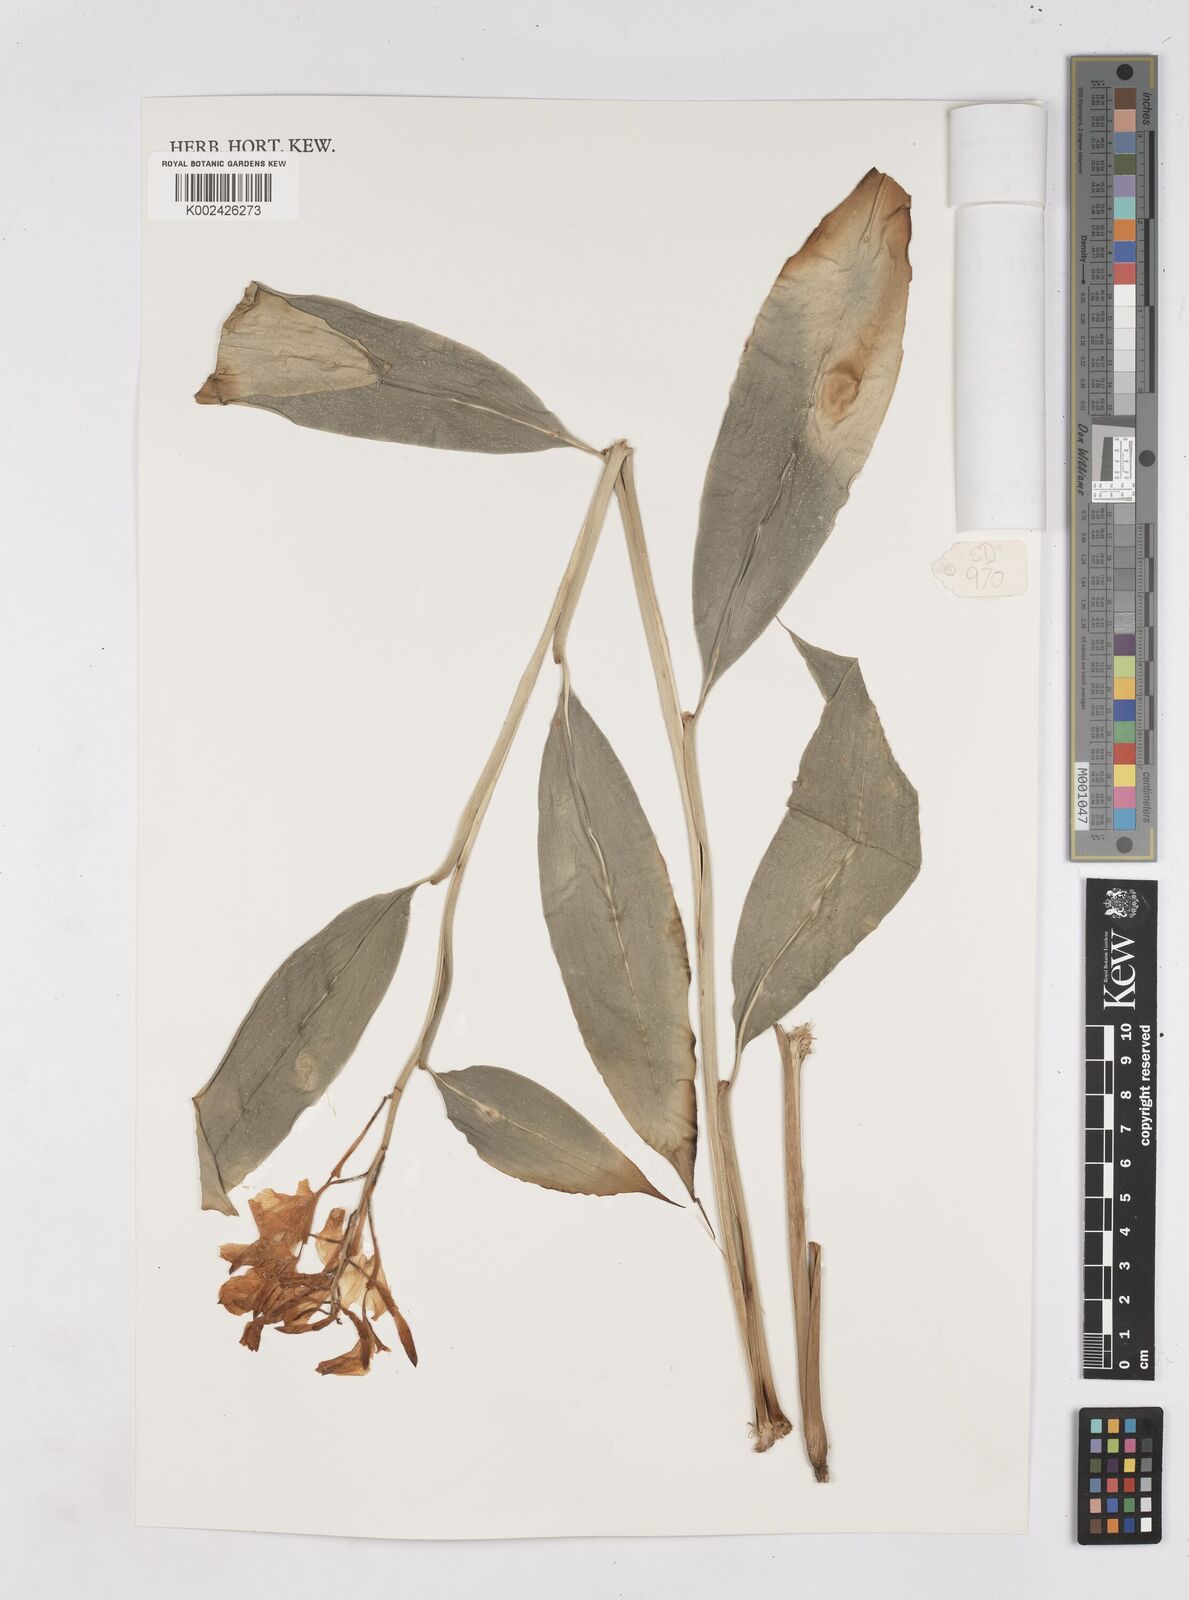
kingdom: Plantae
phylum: Tracheophyta
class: Liliopsida
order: Zingiberales
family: Zingiberaceae
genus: Burbidgea
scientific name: Burbidgea nitida
